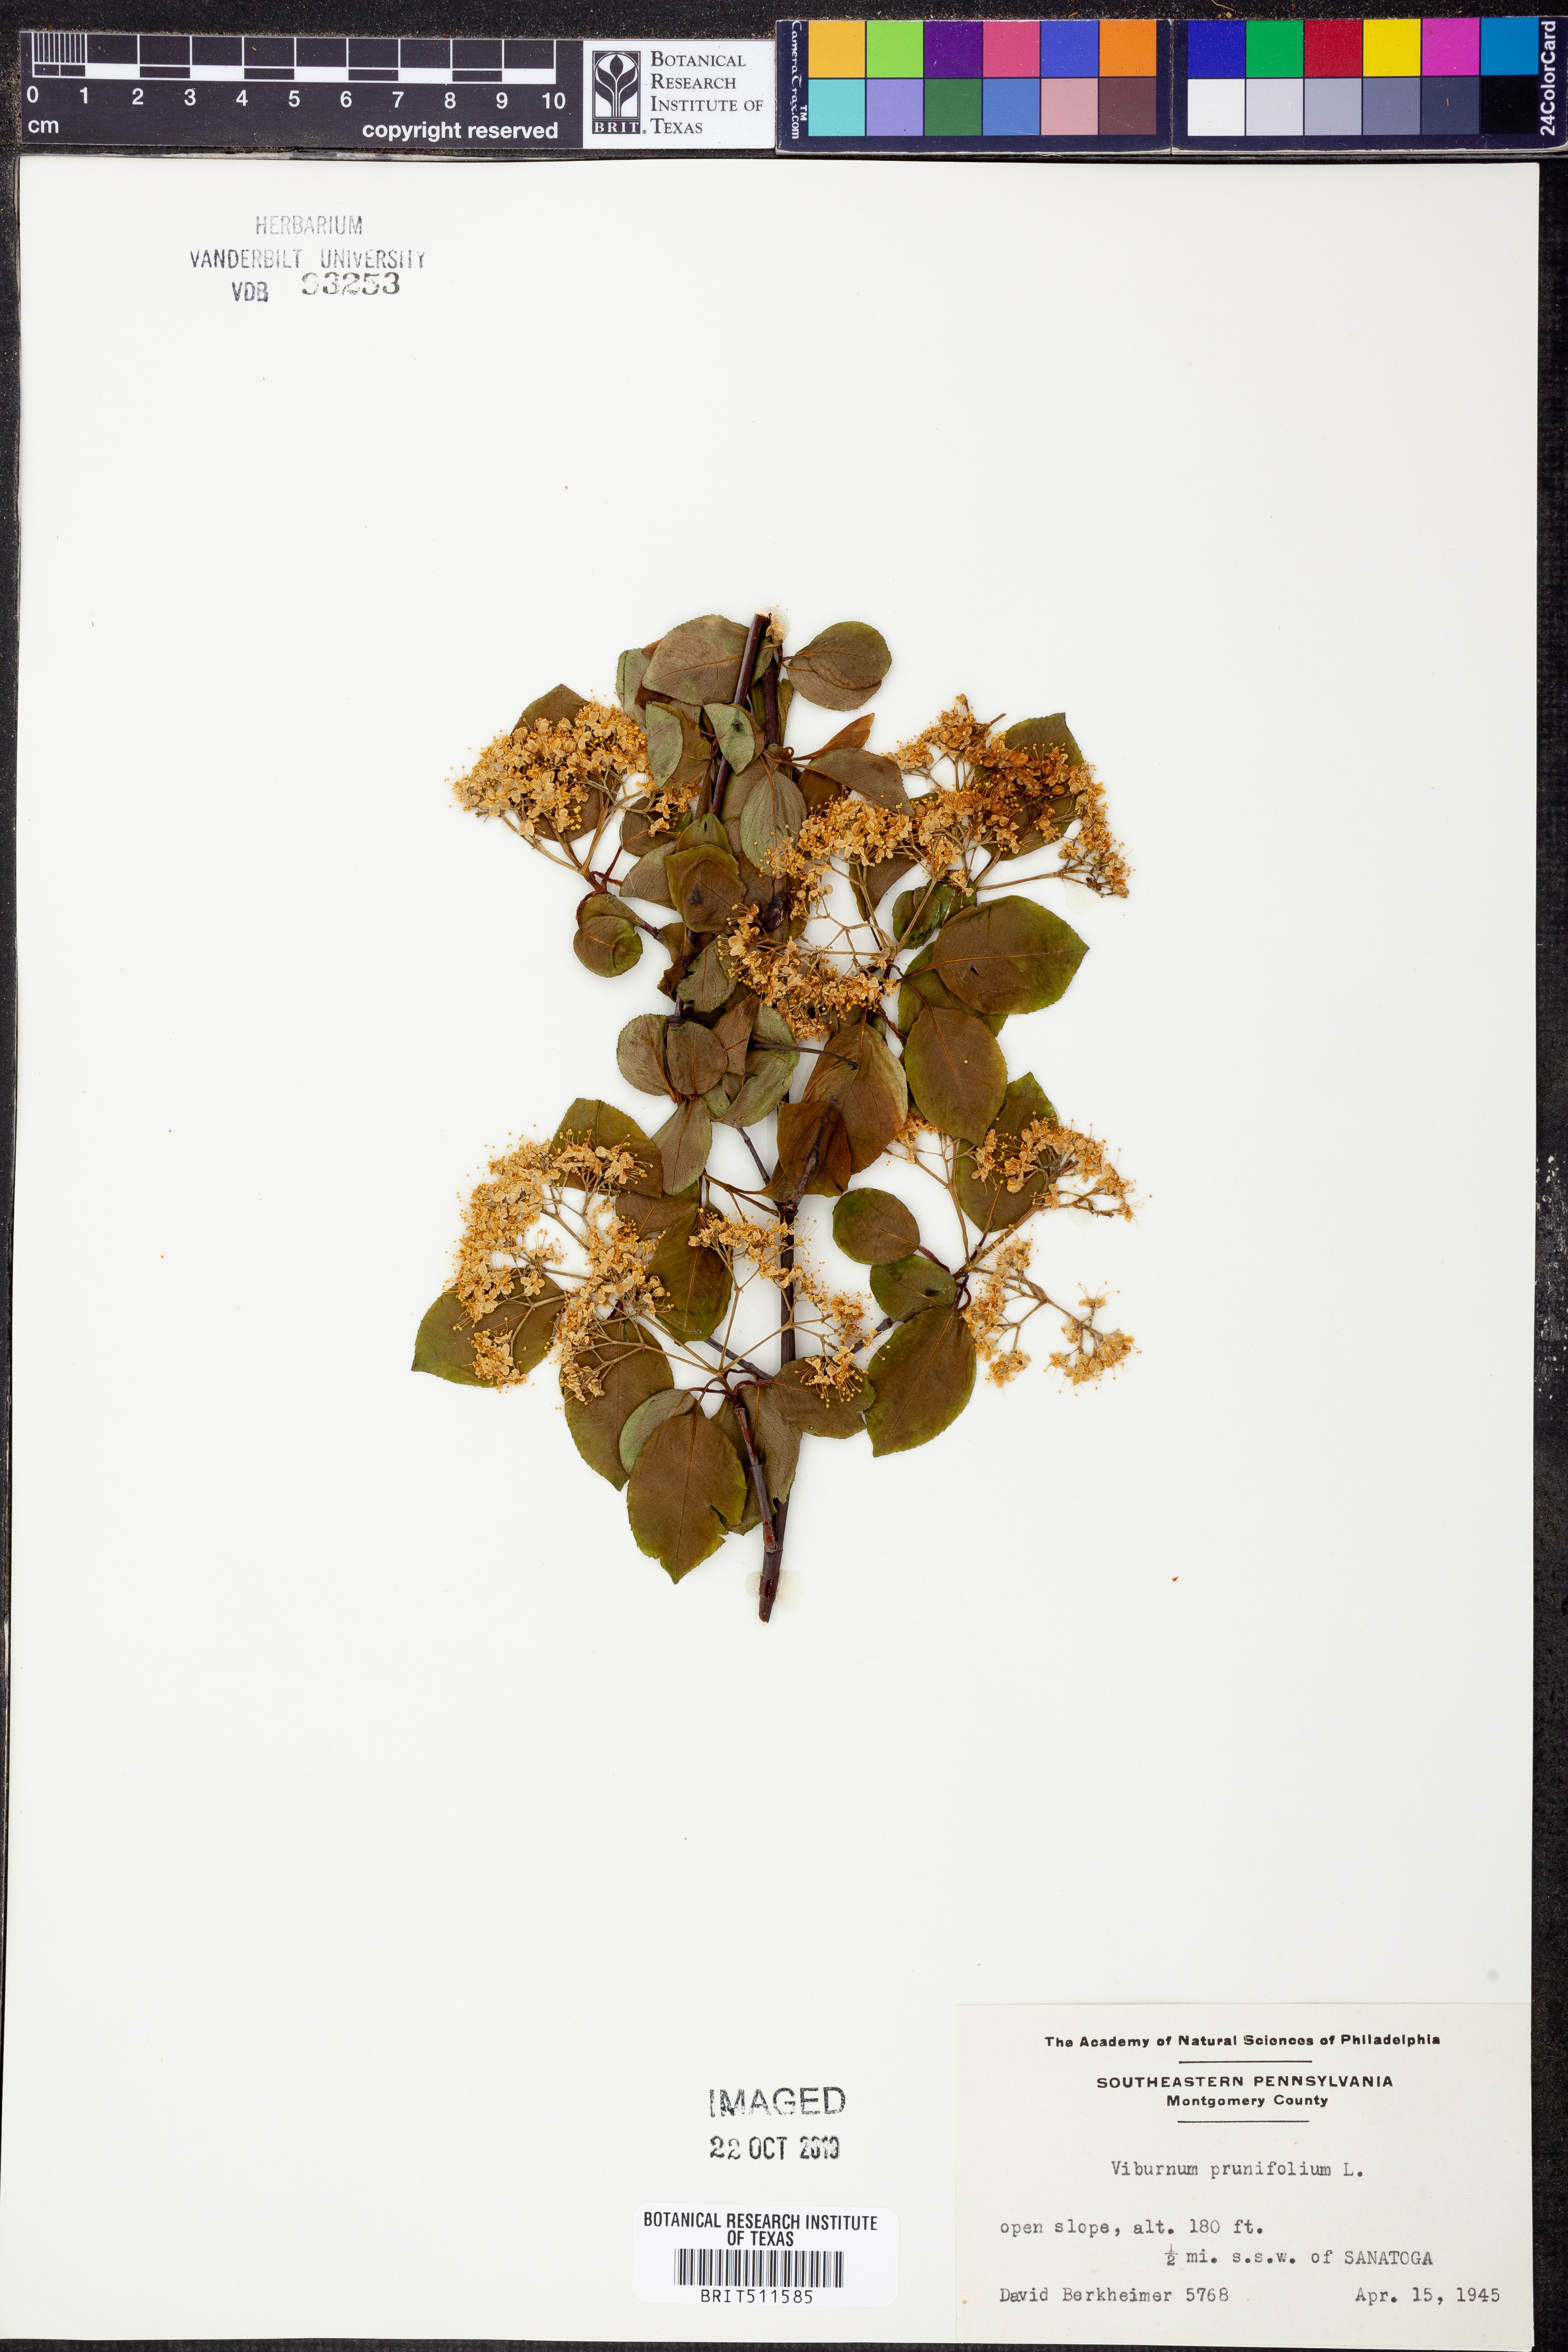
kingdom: Plantae
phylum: Tracheophyta
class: Magnoliopsida
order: Dipsacales
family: Viburnaceae
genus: Viburnum
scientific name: Viburnum prunifolium
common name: Black haw
